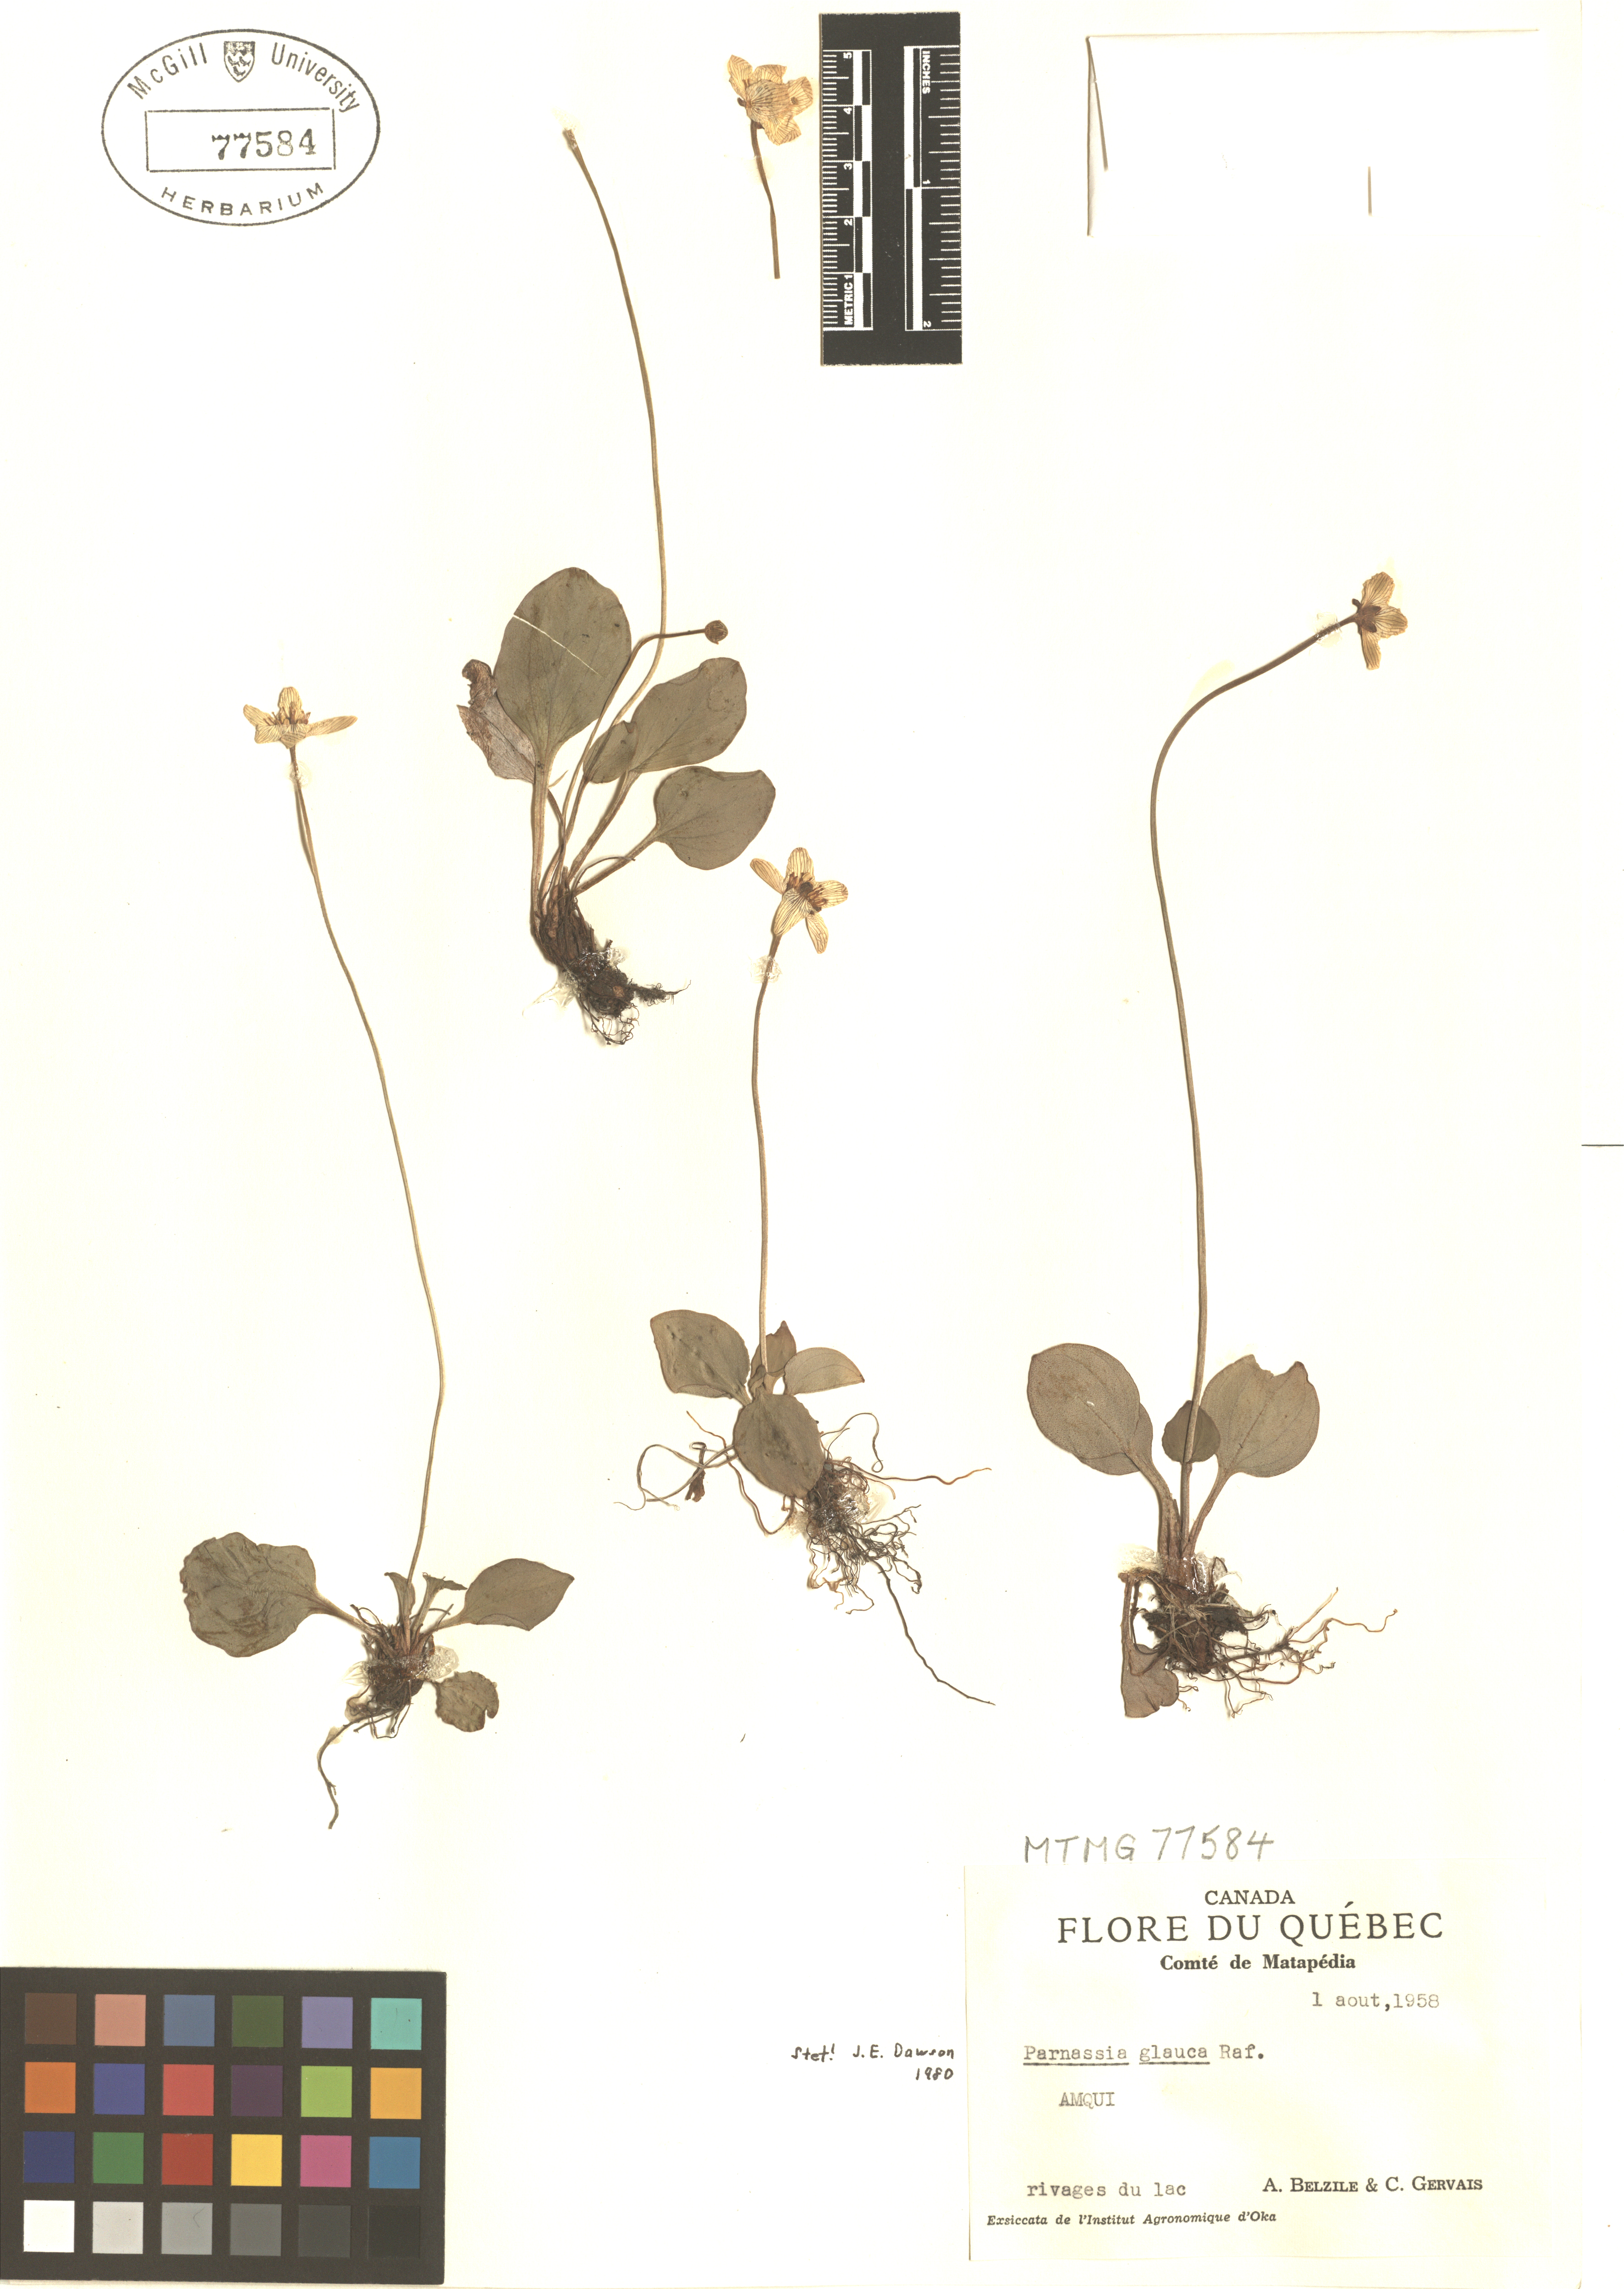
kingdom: Plantae
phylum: Tracheophyta
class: Magnoliopsida
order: Celastrales
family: Parnassiaceae
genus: Parnassia
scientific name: Parnassia glauca
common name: American grass-of-parnassus
